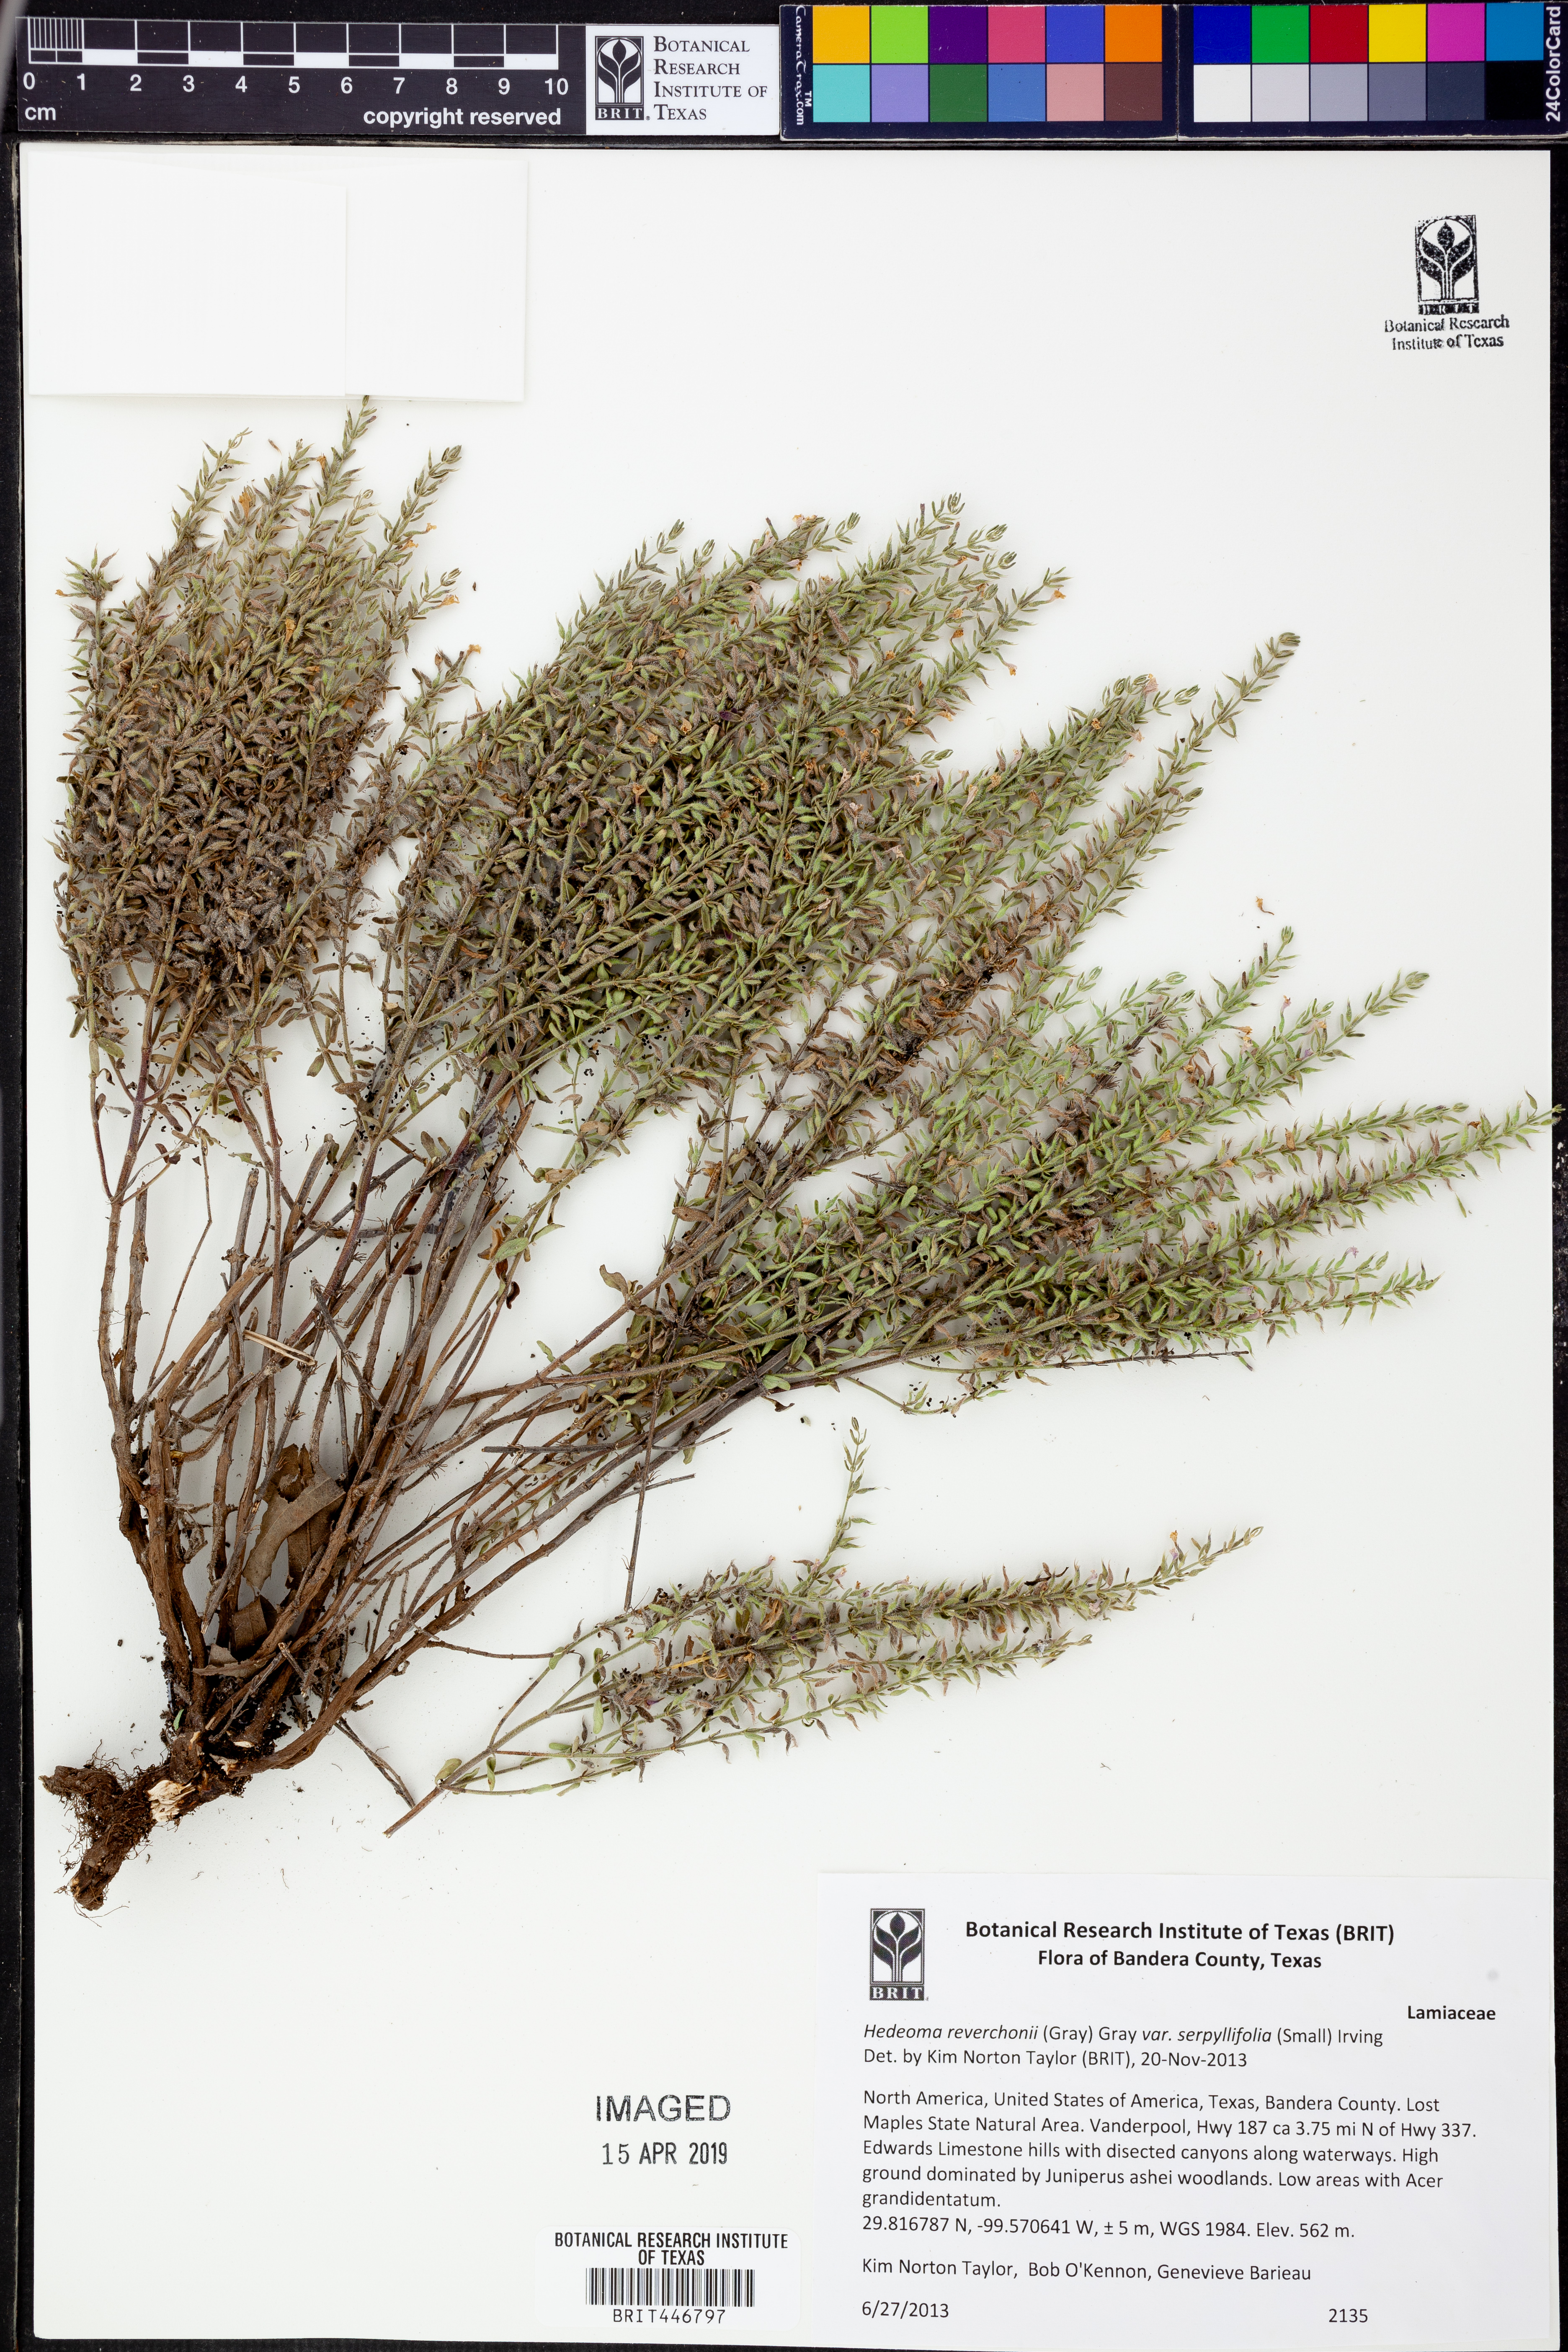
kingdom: Plantae
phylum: Tracheophyta
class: Magnoliopsida
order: Lamiales
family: Lamiaceae
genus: Hedeoma
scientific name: Hedeoma serpyllifolia
